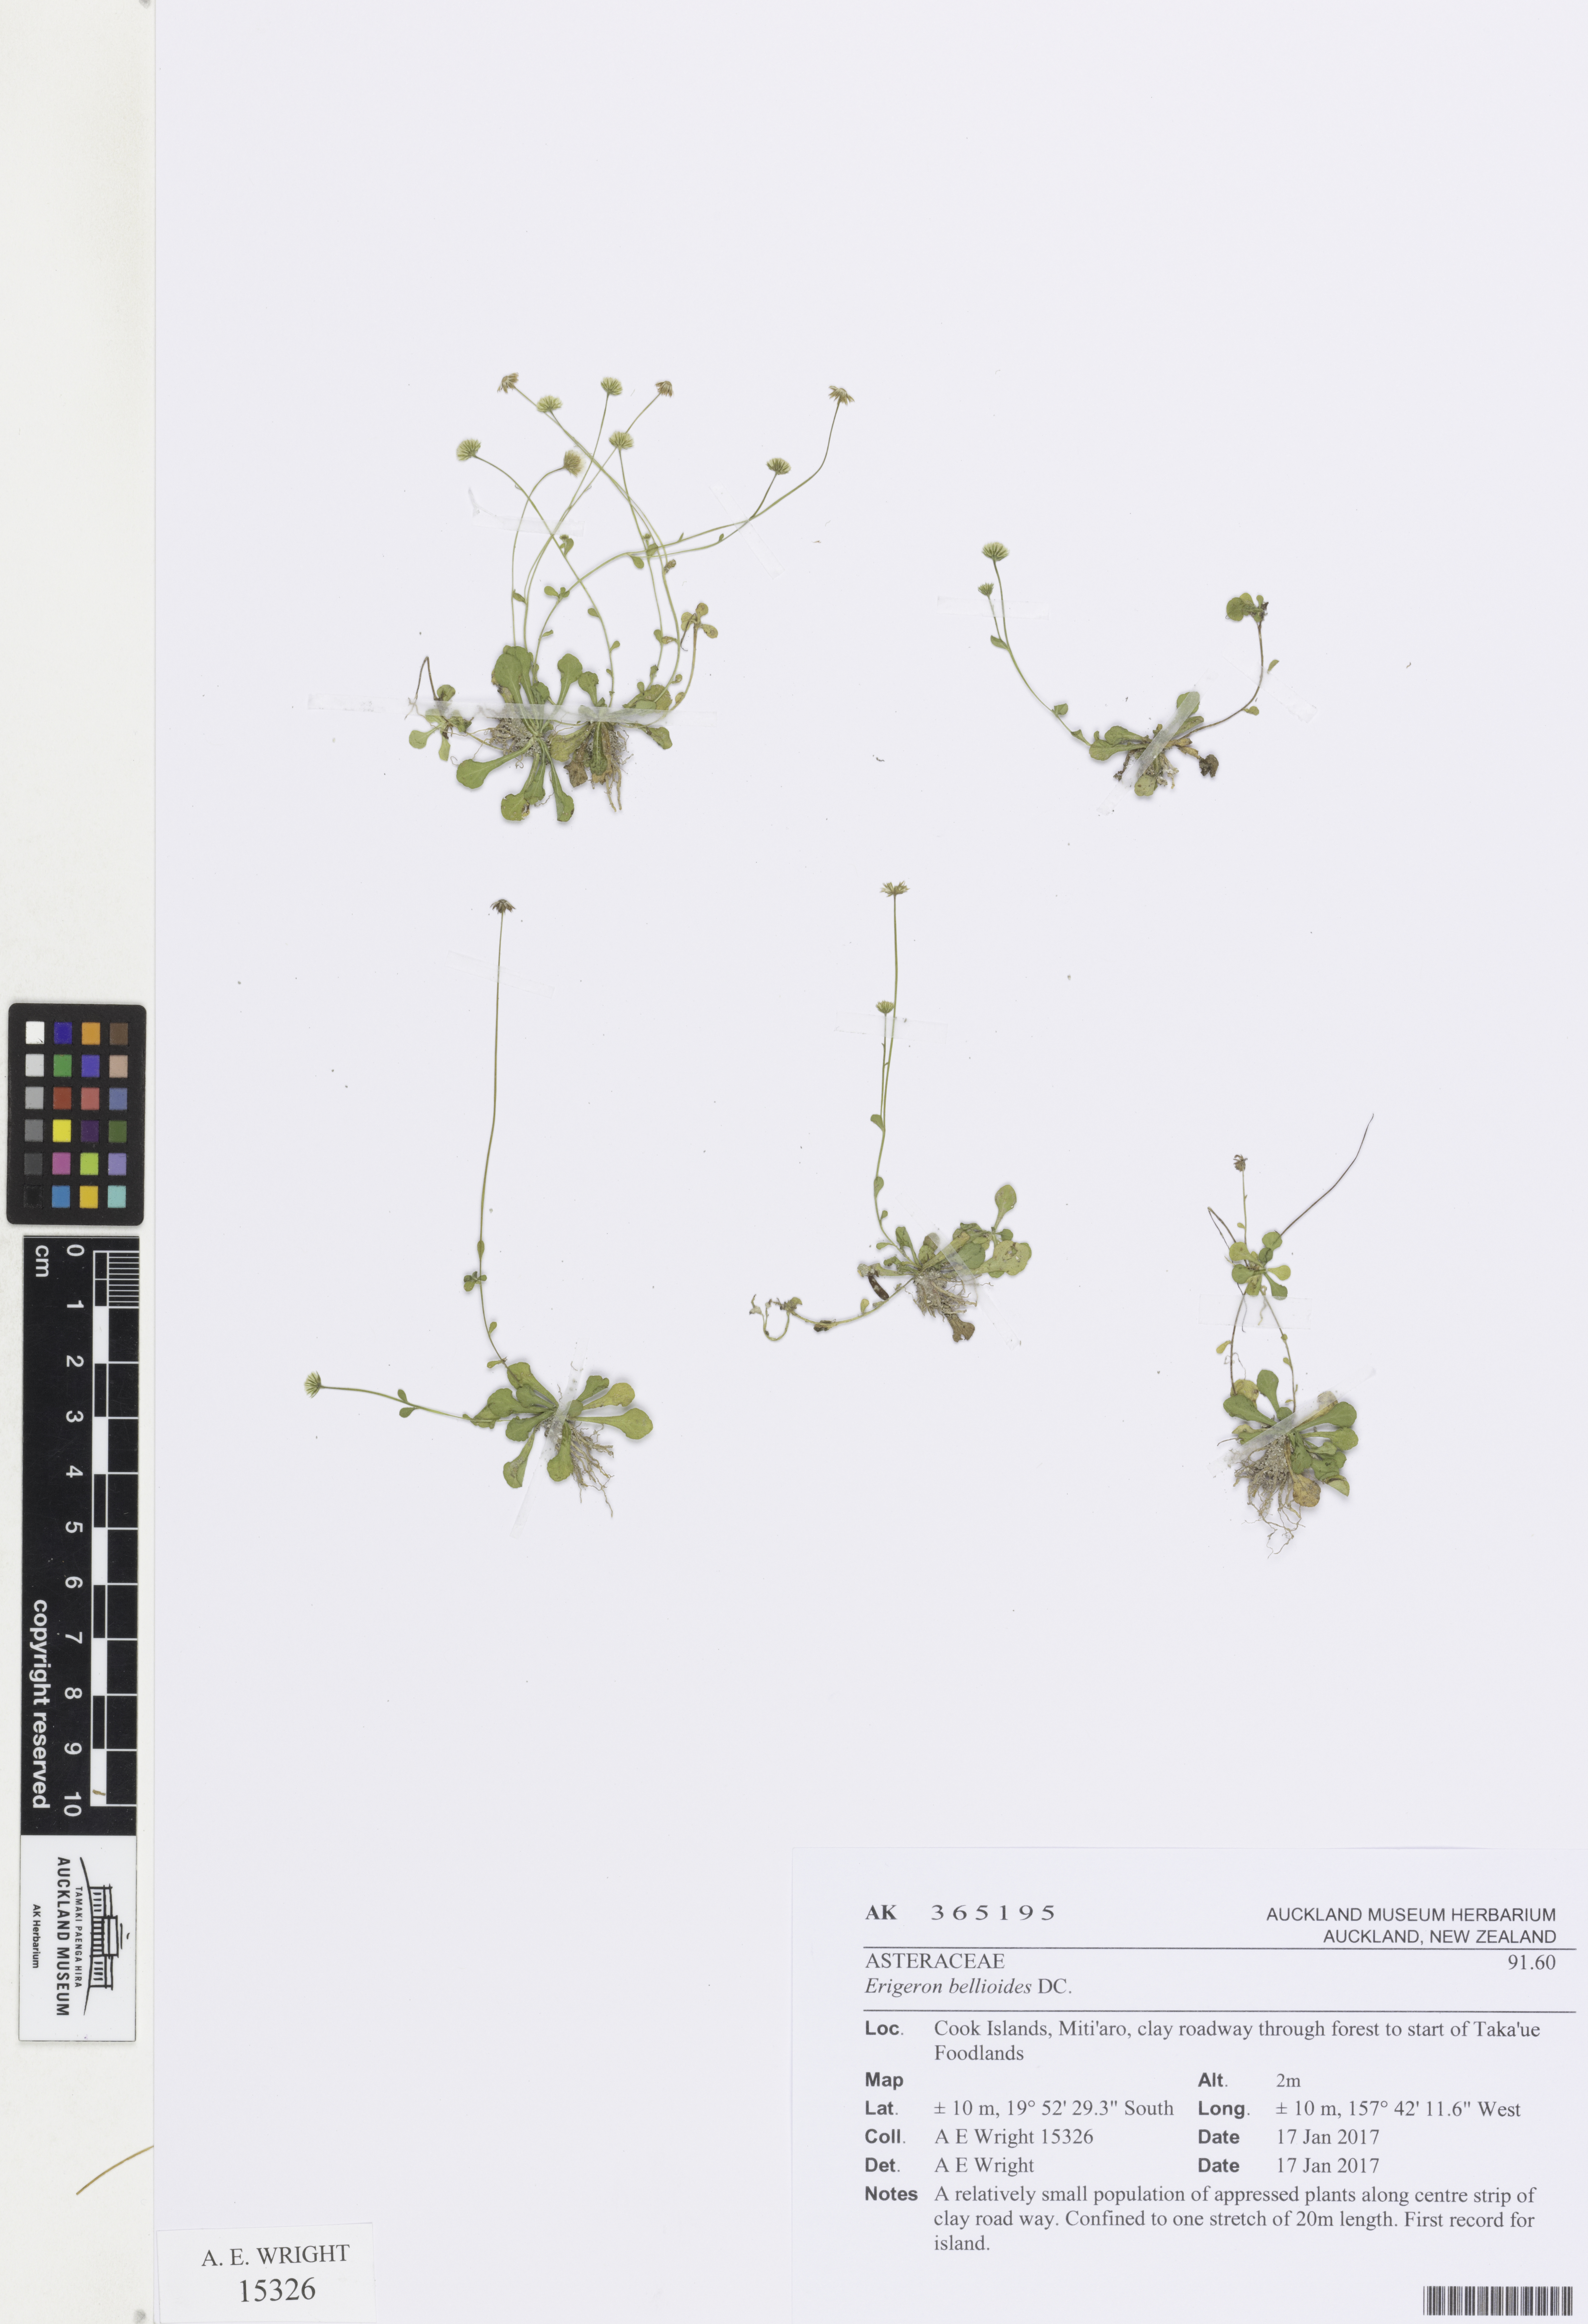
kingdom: Plantae
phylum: Tracheophyta
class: Magnoliopsida
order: Asterales
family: Asteraceae
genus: Erigeron
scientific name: Erigeron bellioides
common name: Bellorita
